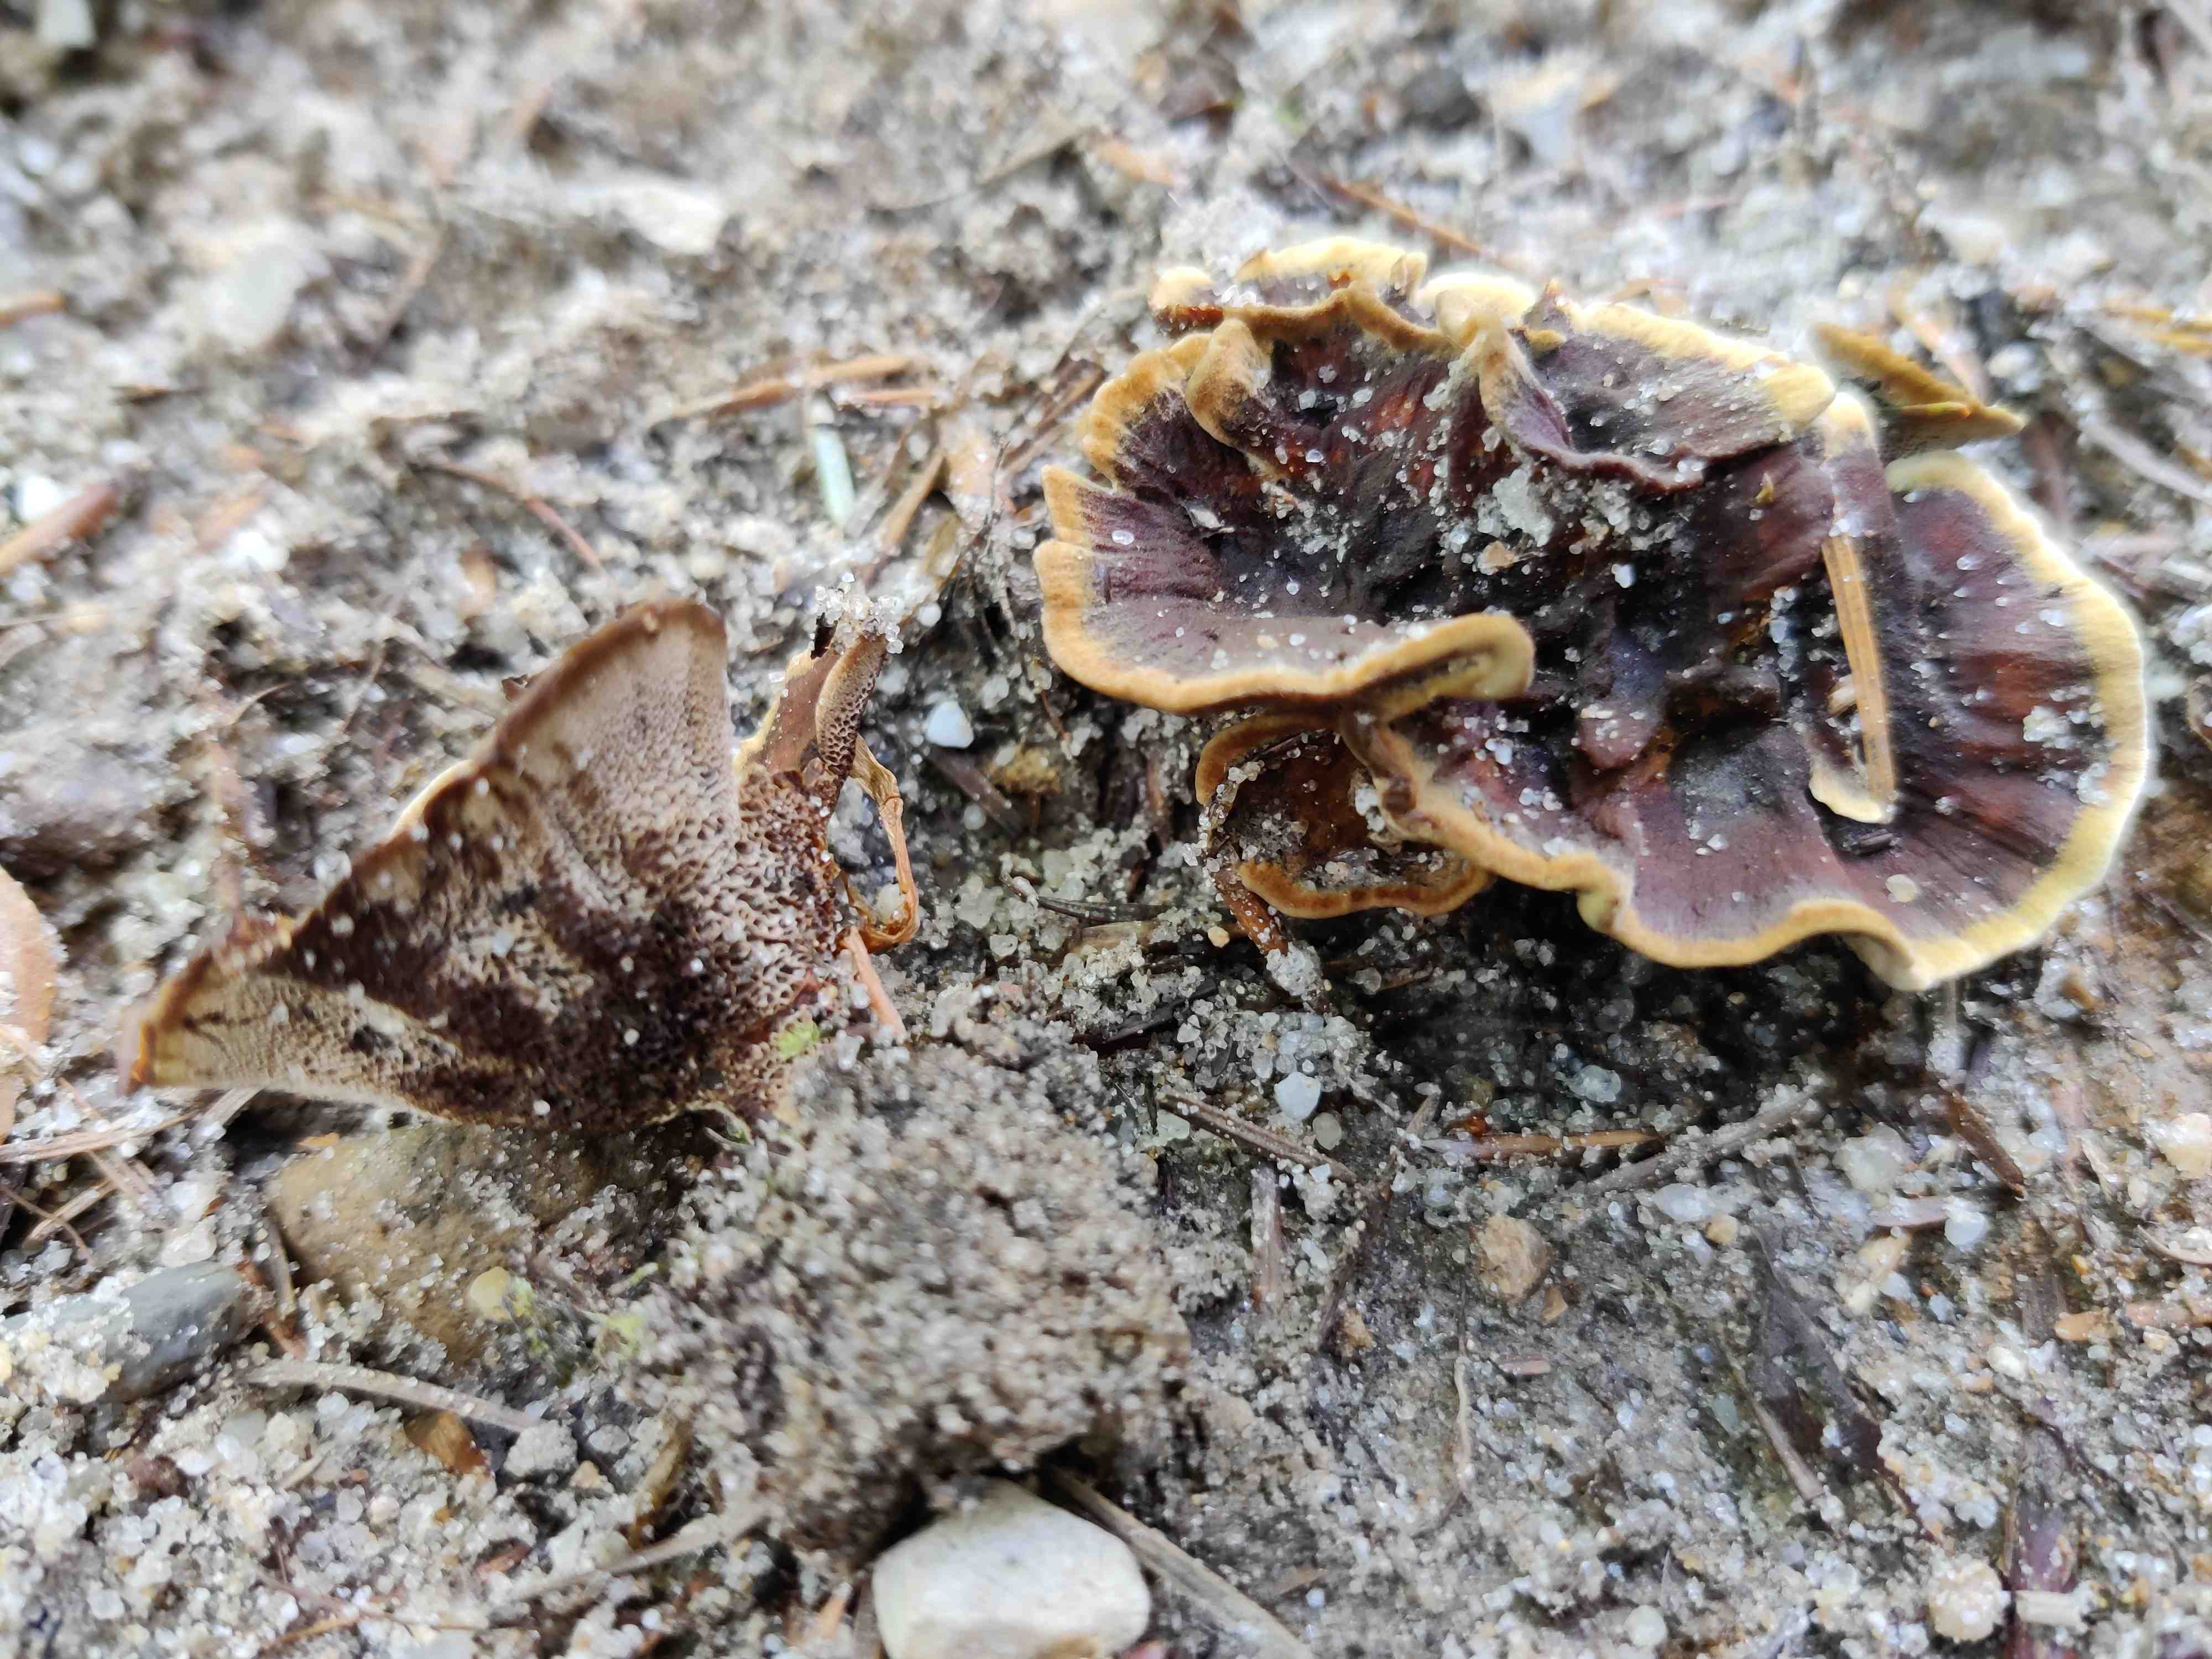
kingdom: Fungi
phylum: Basidiomycota
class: Agaricomycetes
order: Hymenochaetales
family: Hymenochaetaceae
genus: Coltricia
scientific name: Coltricia perennis
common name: almindelig sandporesvamp
